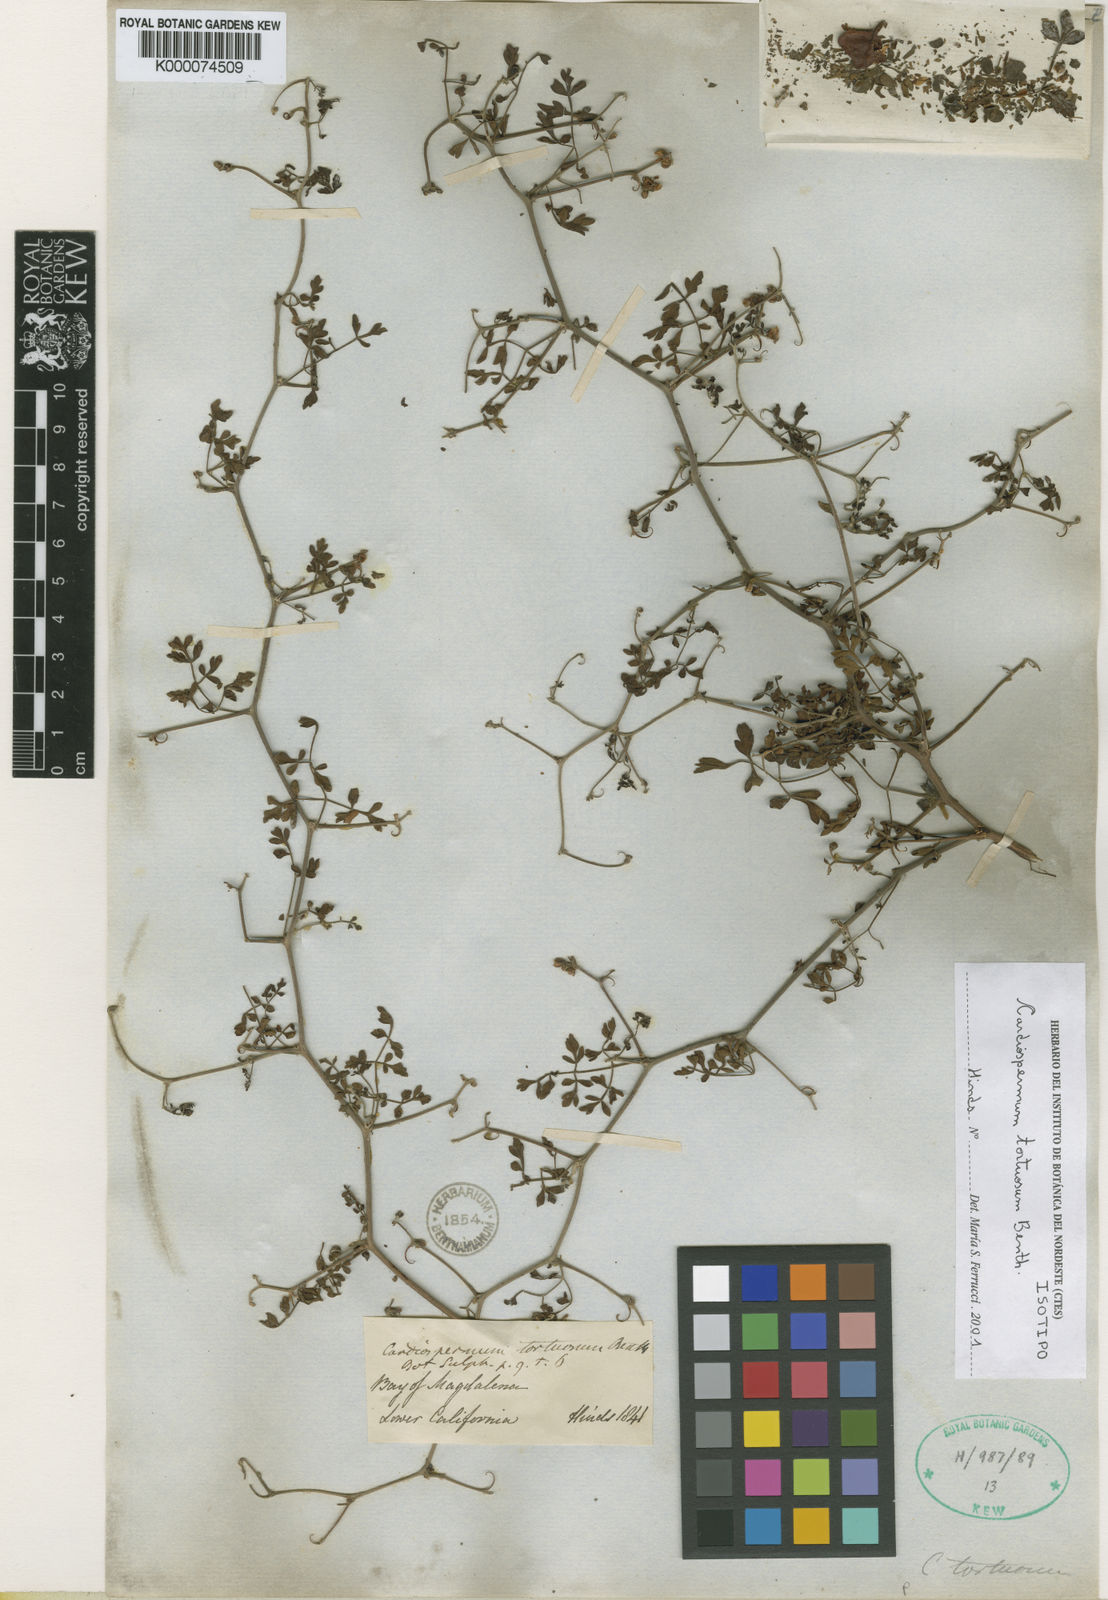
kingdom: Plantae
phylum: Tracheophyta
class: Magnoliopsida
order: Sapindales
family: Sapindaceae
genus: Serjania
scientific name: Serjania tortuosa
